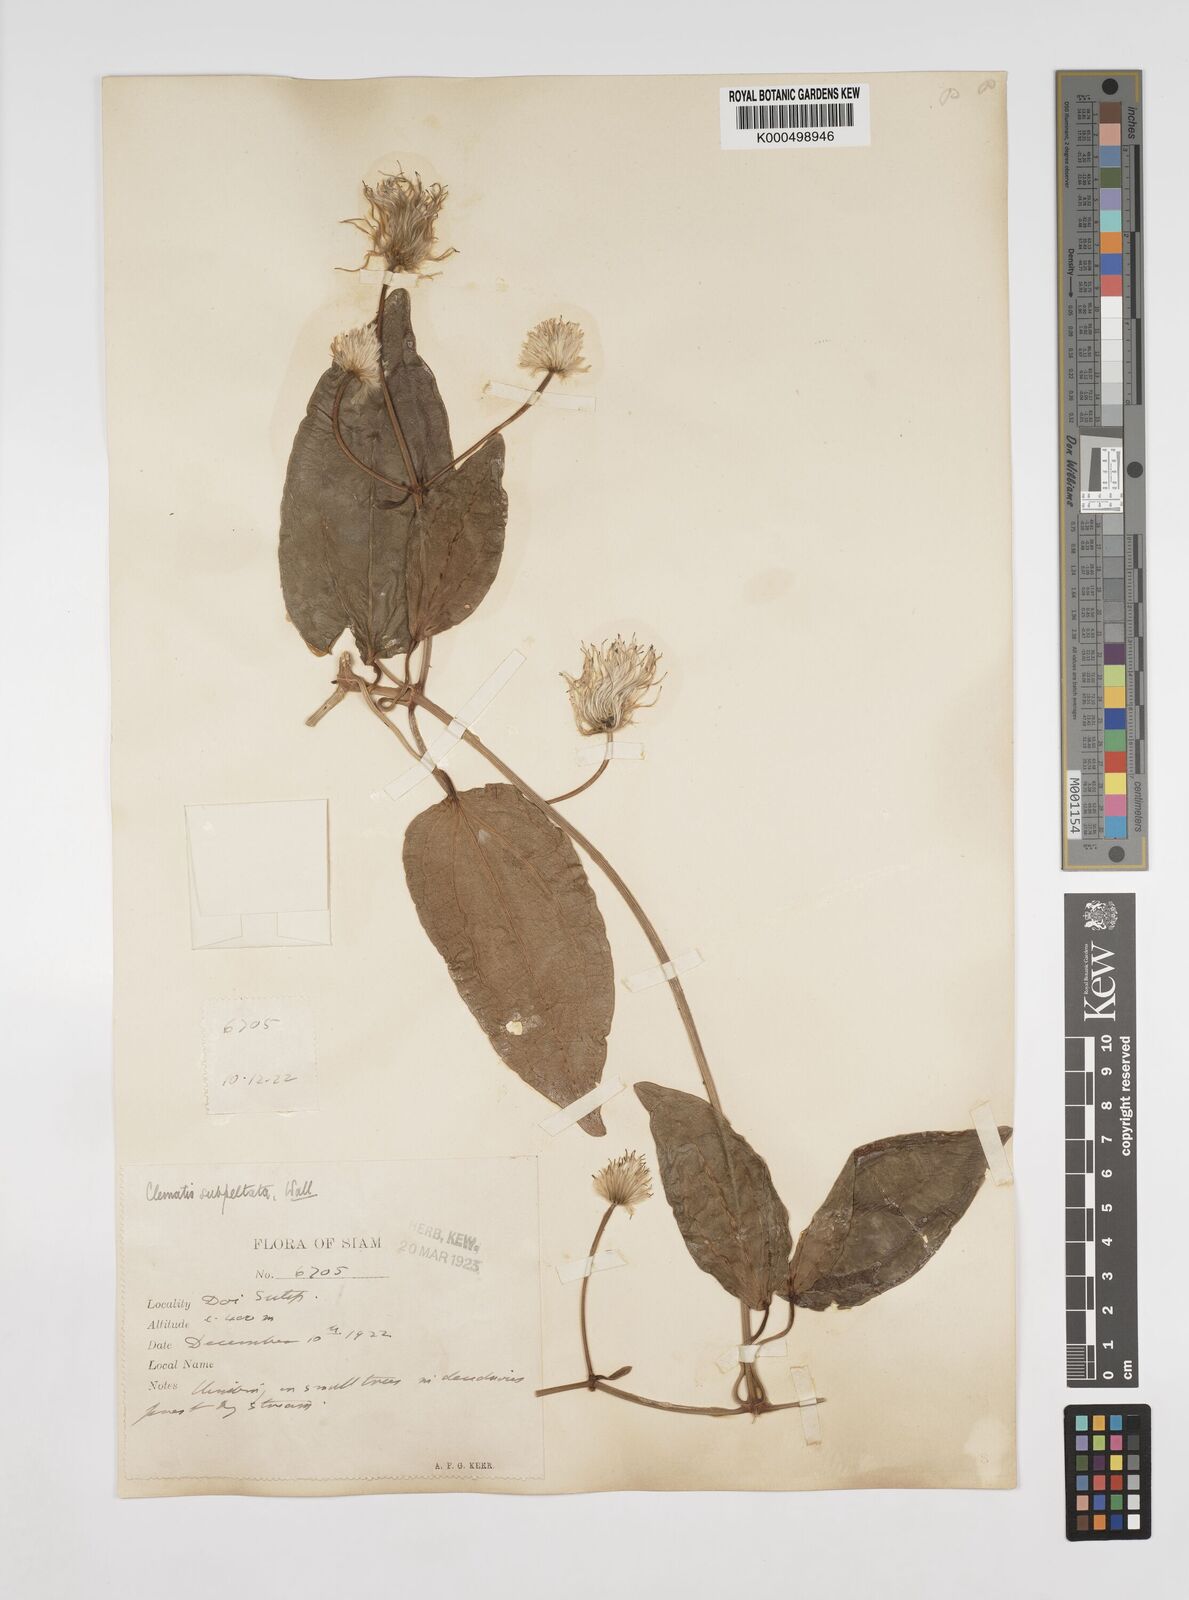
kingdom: Plantae
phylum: Tracheophyta
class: Magnoliopsida
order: Ranunculales
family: Ranunculaceae
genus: Clematis
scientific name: Clematis smilacifolia
